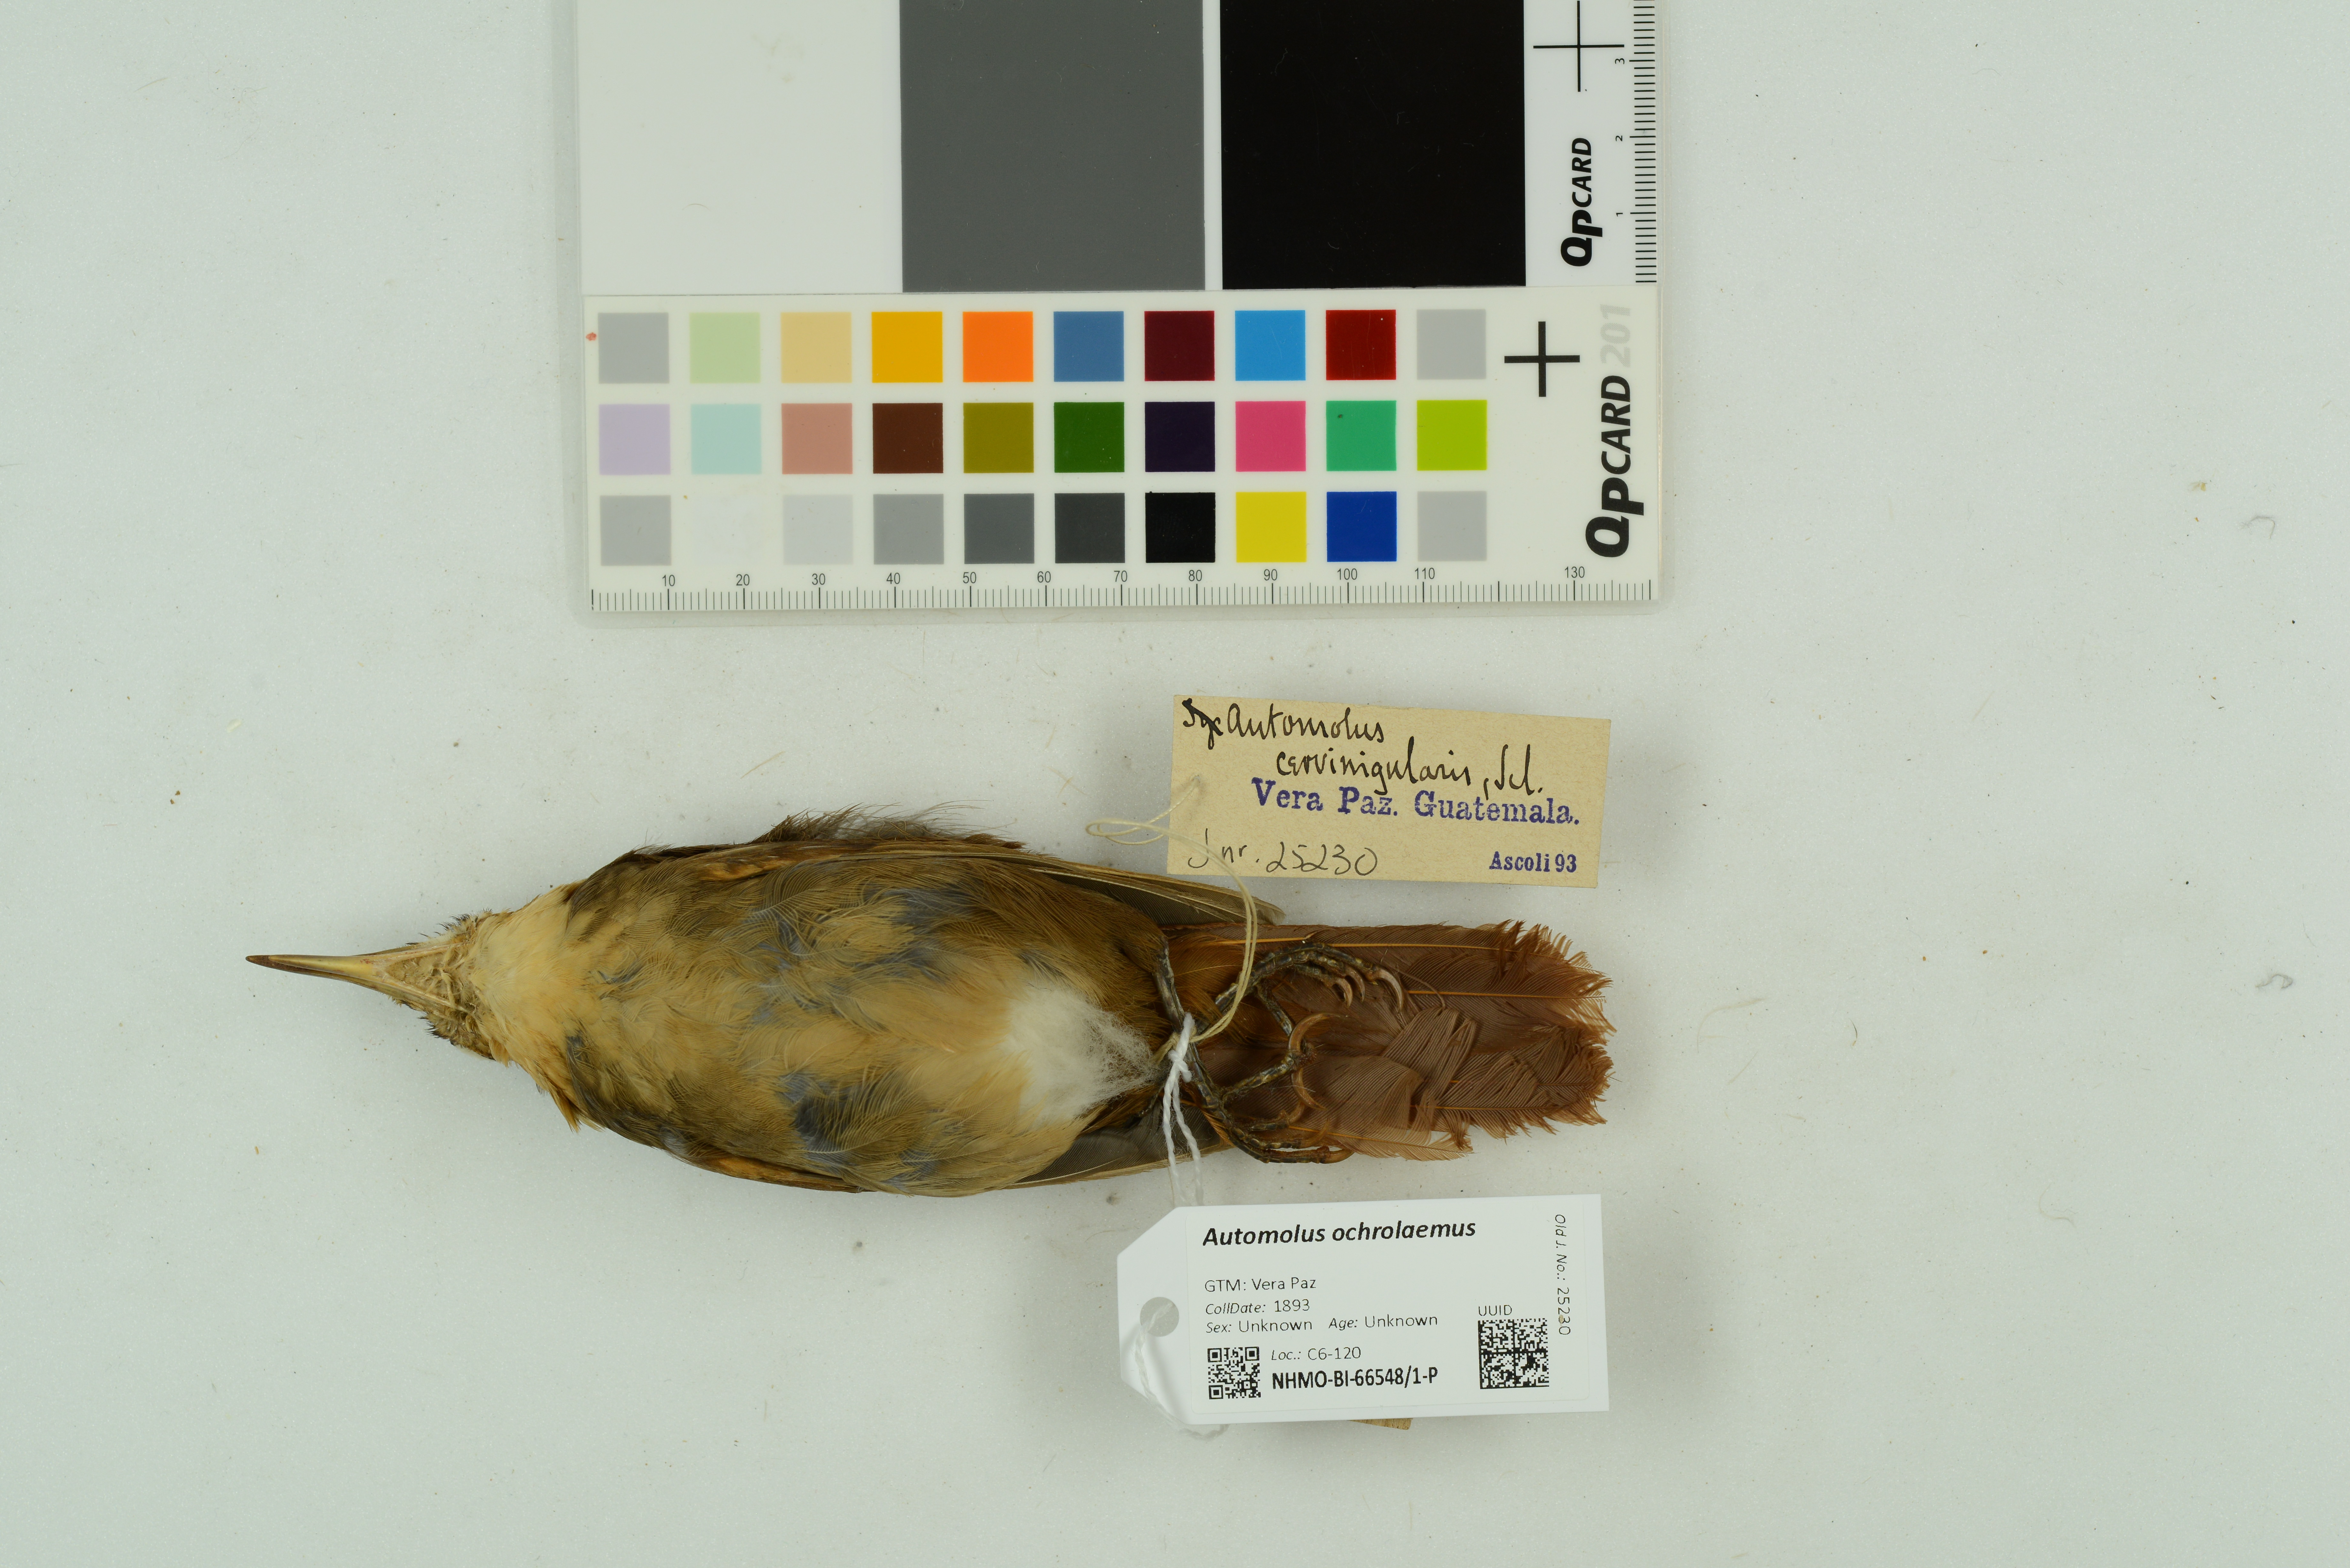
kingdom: Animalia
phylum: Chordata
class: Aves
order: Passeriformes
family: Furnariidae
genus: Automolus
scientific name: Automolus ochrolaemus
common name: Buff-throated foliage-gleaner
